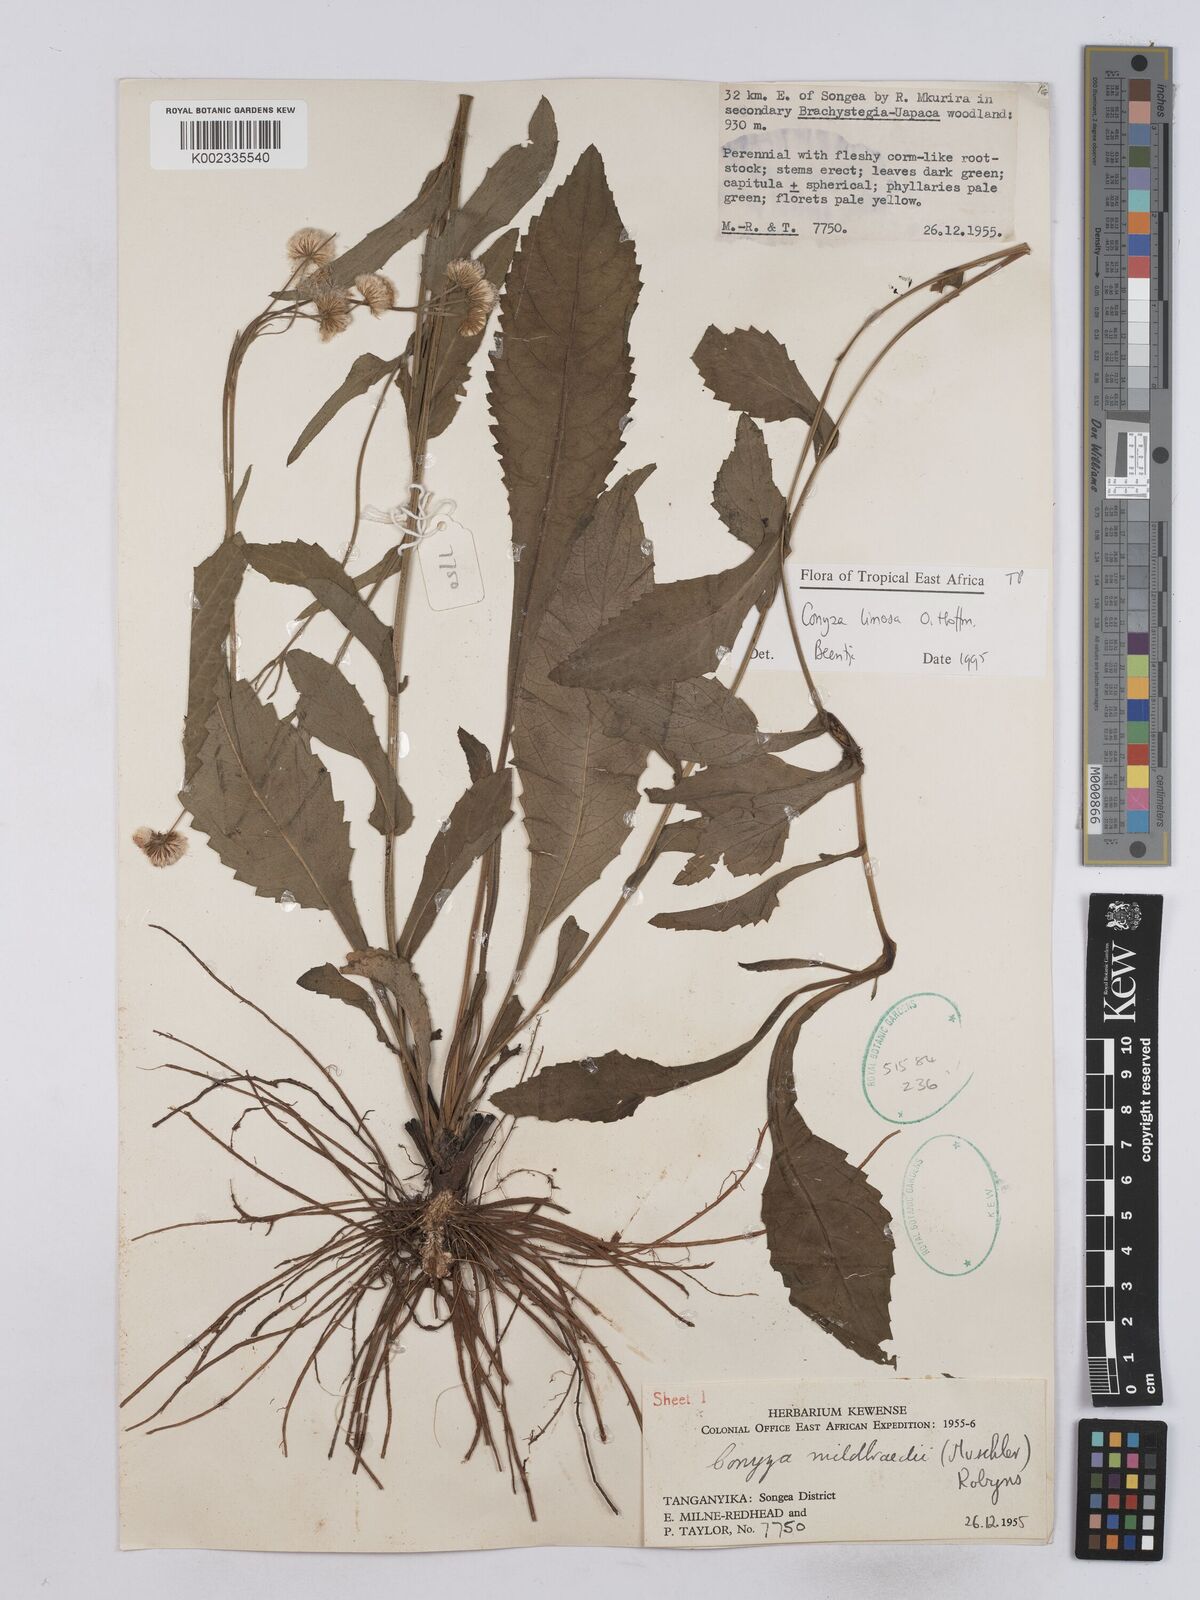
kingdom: Plantae
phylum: Tracheophyta
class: Magnoliopsida
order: Asterales
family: Asteraceae
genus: Conyza
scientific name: Conyza limosa
